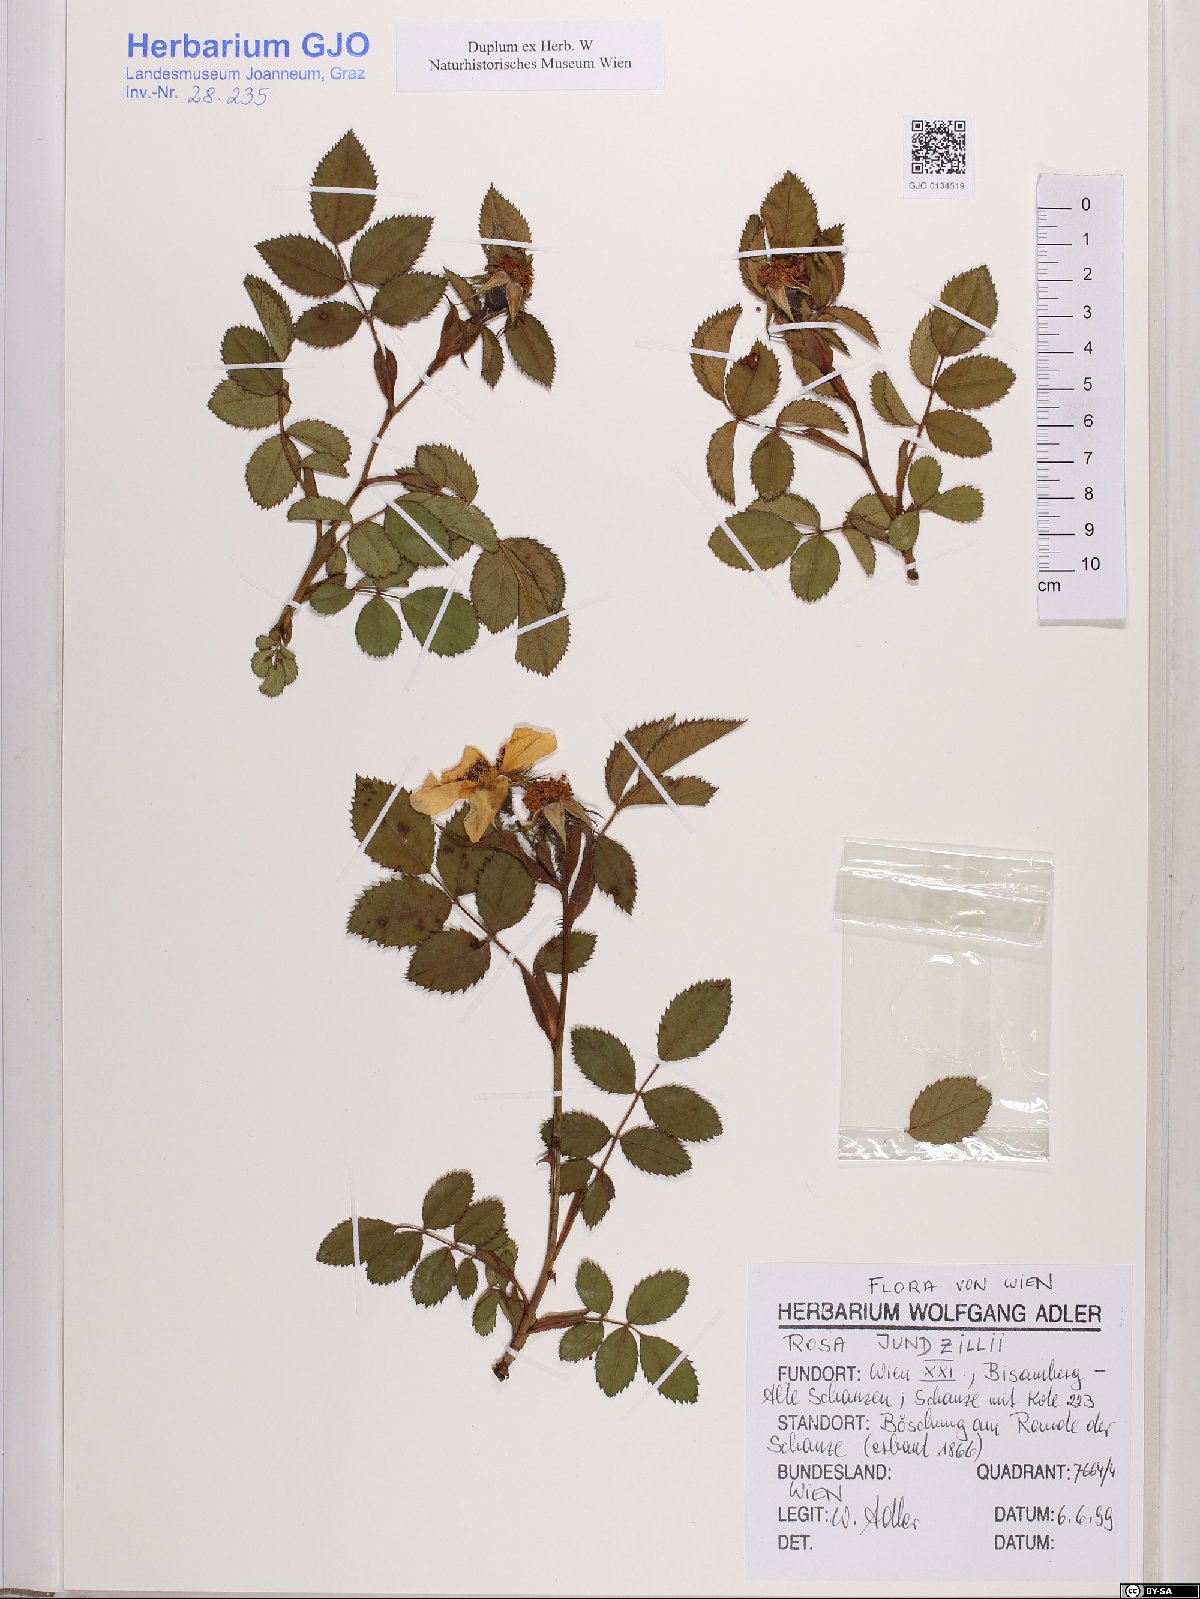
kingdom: Plantae
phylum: Tracheophyta
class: Magnoliopsida
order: Rosales
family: Rosaceae
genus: Rosa
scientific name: Rosa marginata
